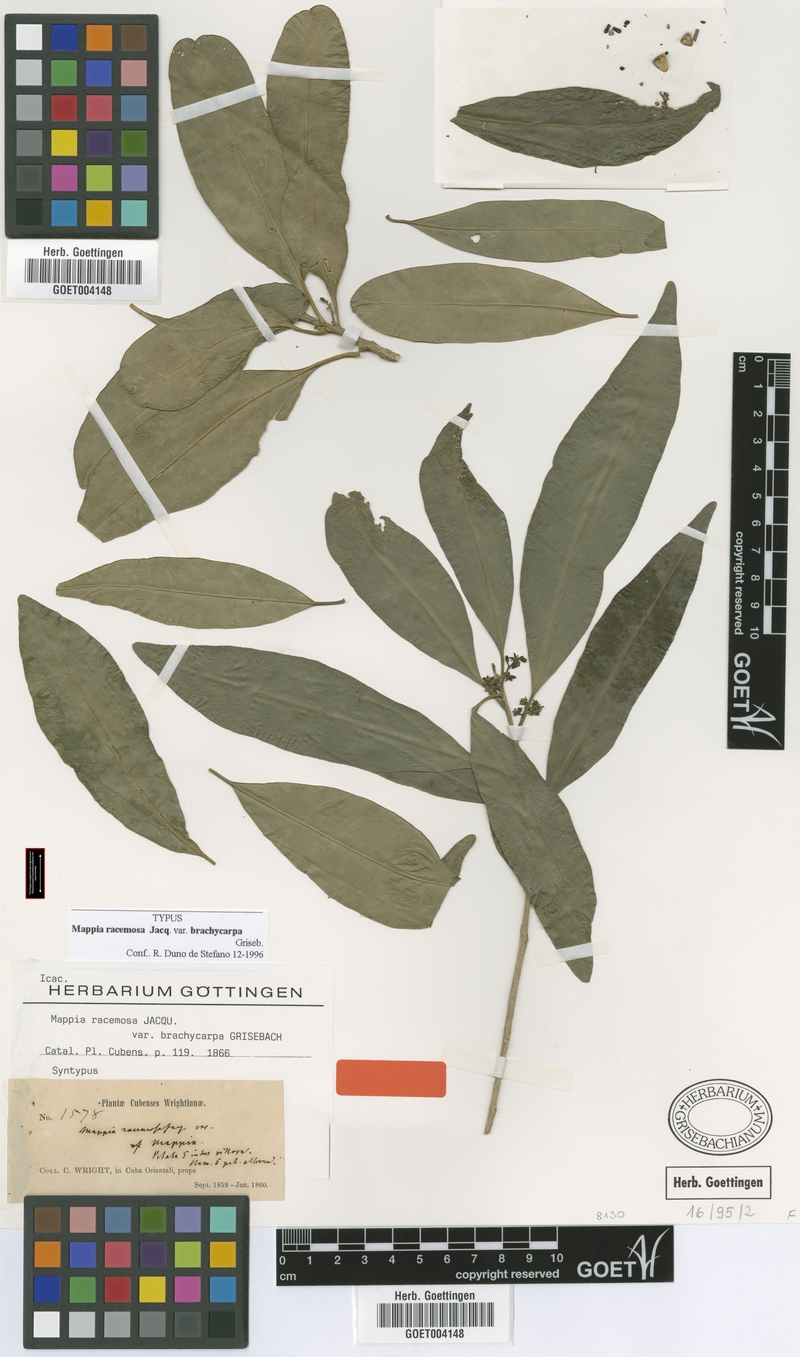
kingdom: Plantae
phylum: Tracheophyta
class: Magnoliopsida
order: Icacinales
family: Icacinaceae
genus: Mappia
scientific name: Mappia racemosa
